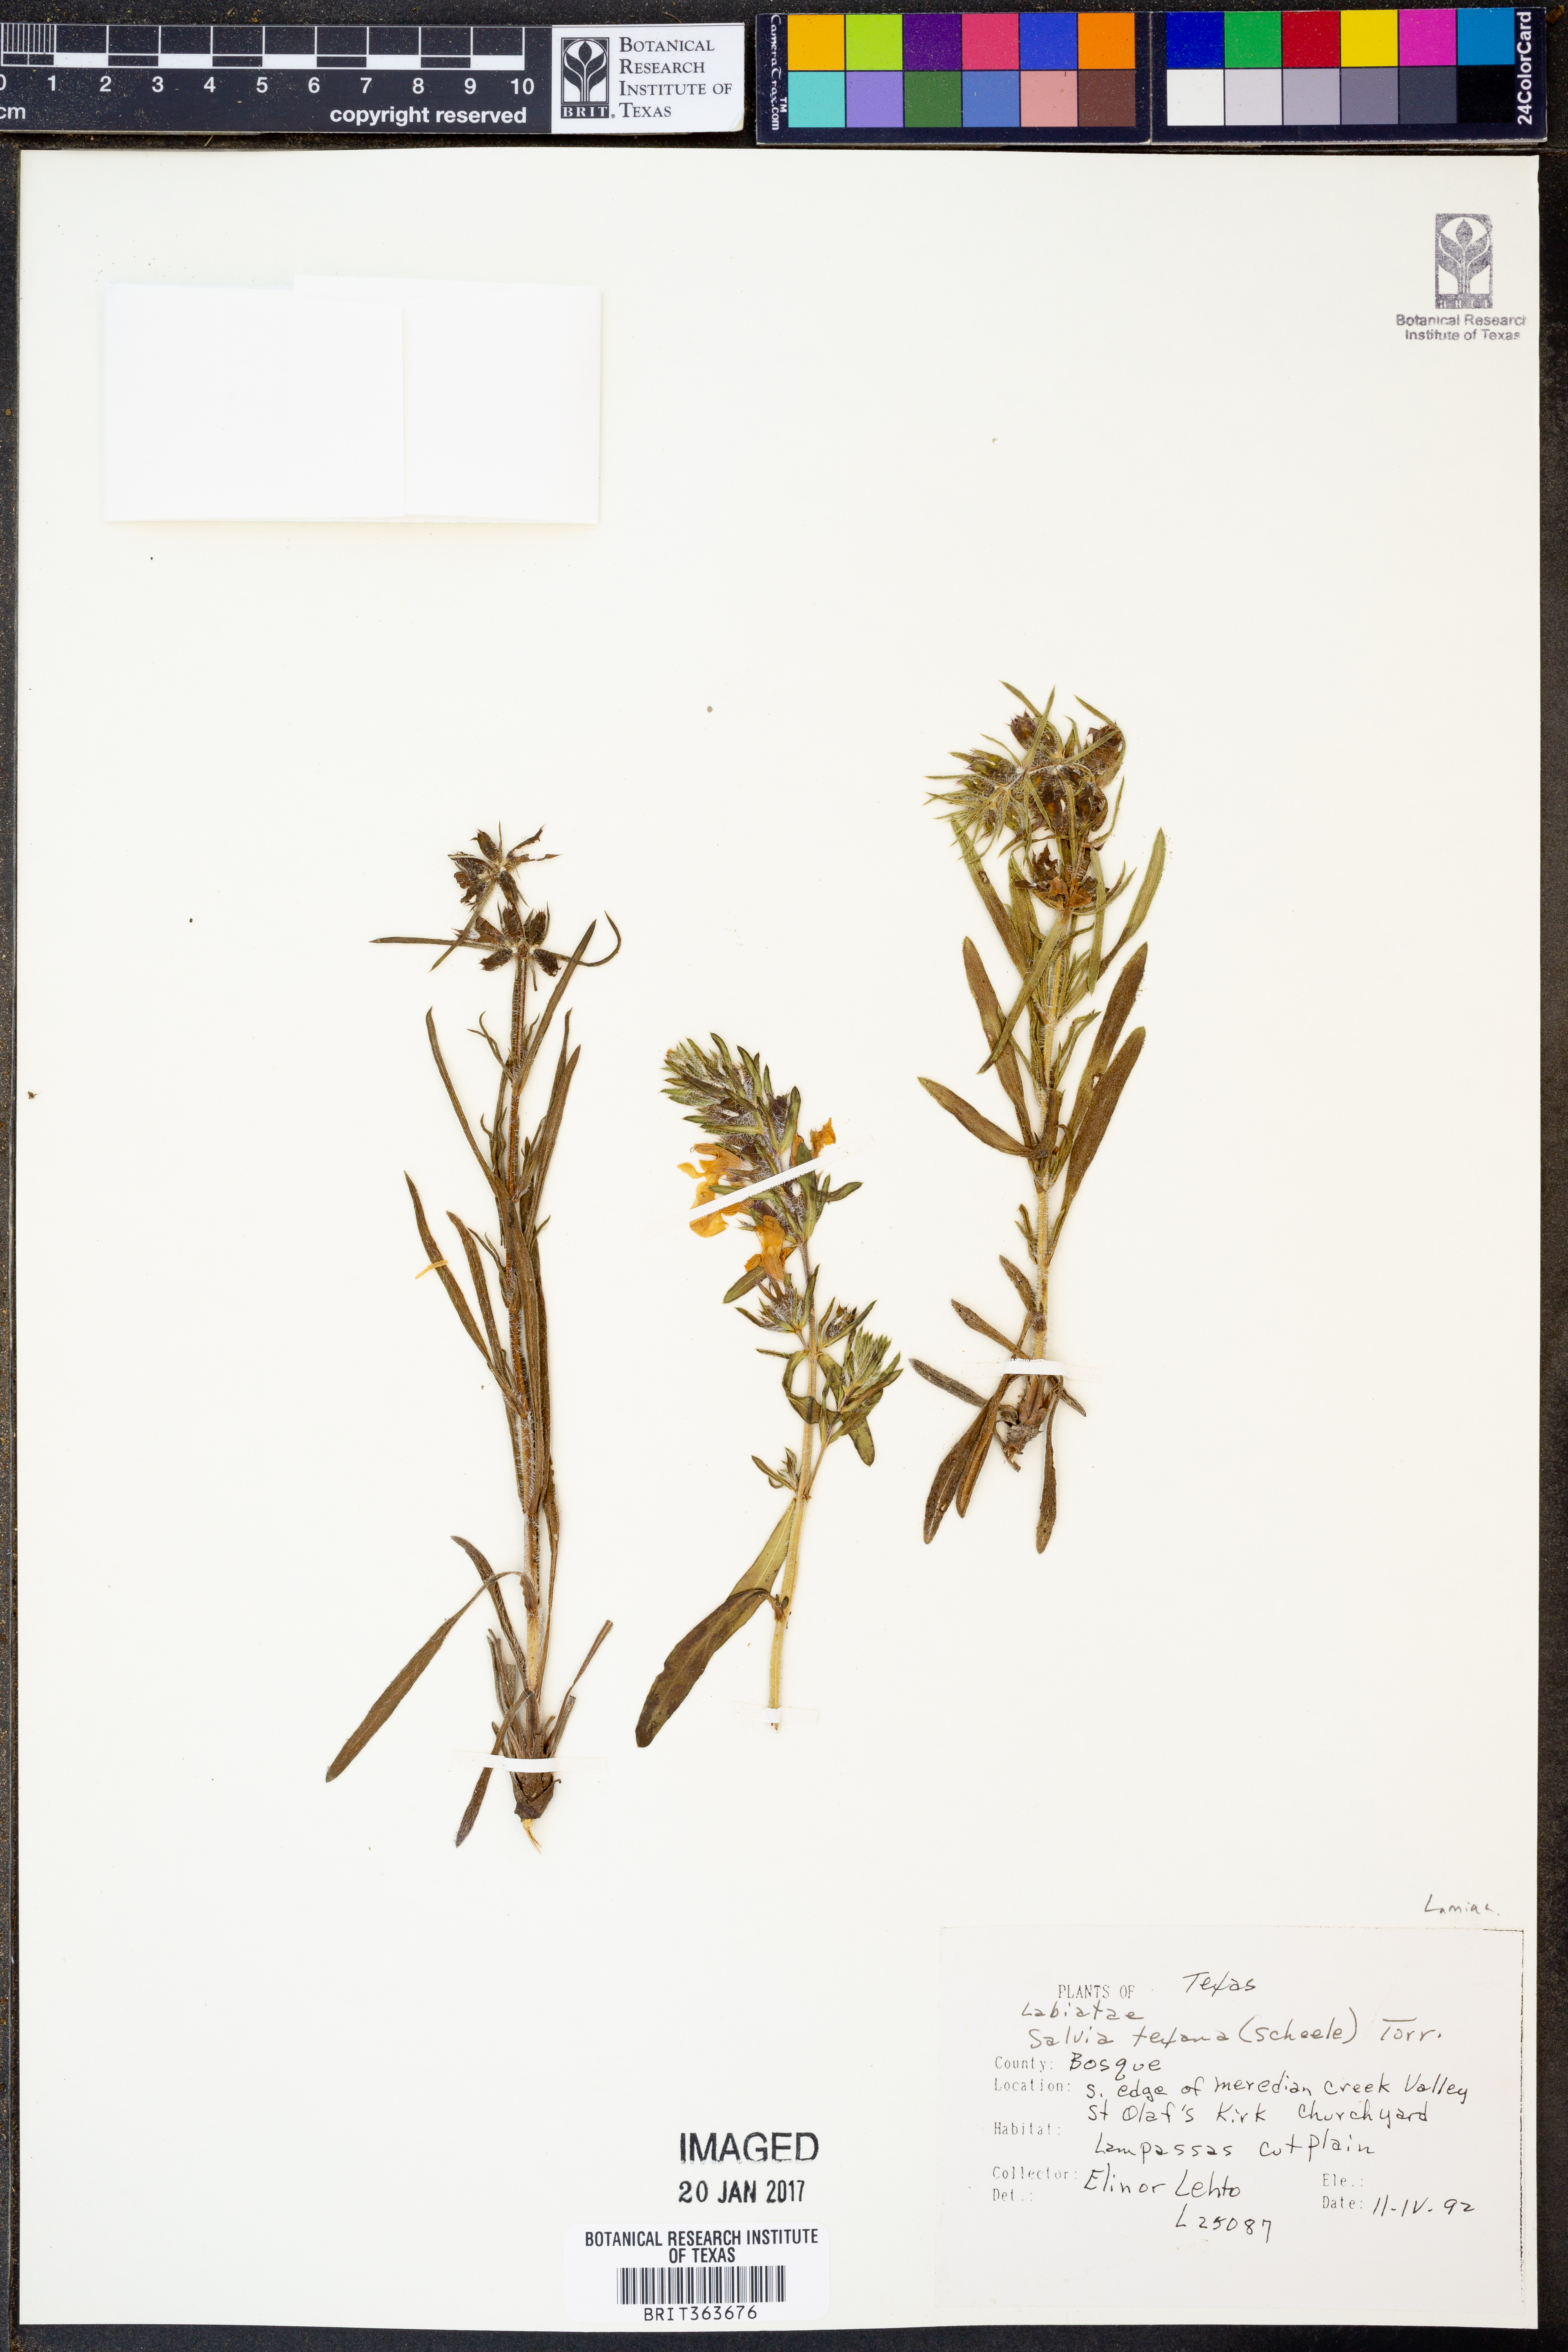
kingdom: Plantae
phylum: Tracheophyta
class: Magnoliopsida
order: Lamiales
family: Lamiaceae
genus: Salvia
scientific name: Salvia texana
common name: Texas sage
